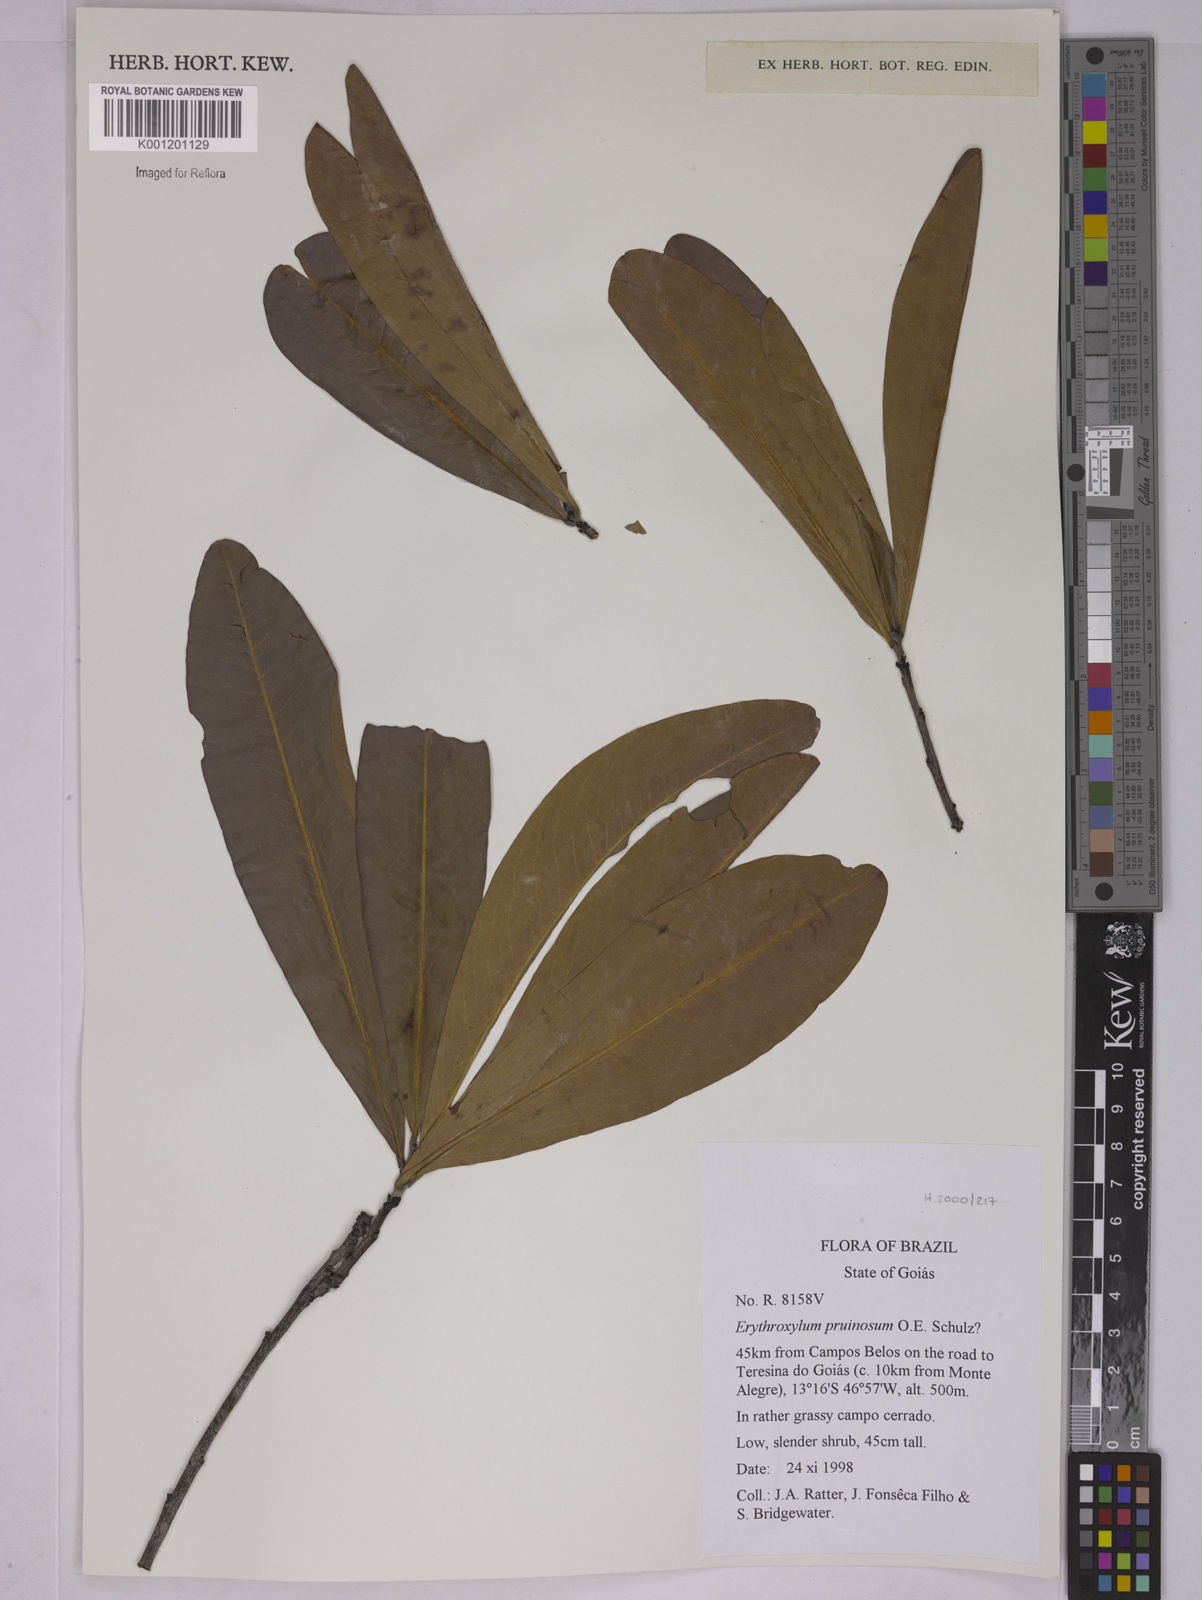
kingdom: Plantae
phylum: Tracheophyta
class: Magnoliopsida
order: Malpighiales
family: Erythroxylaceae
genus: Erythroxylum
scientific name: Erythroxylum pruinosum
